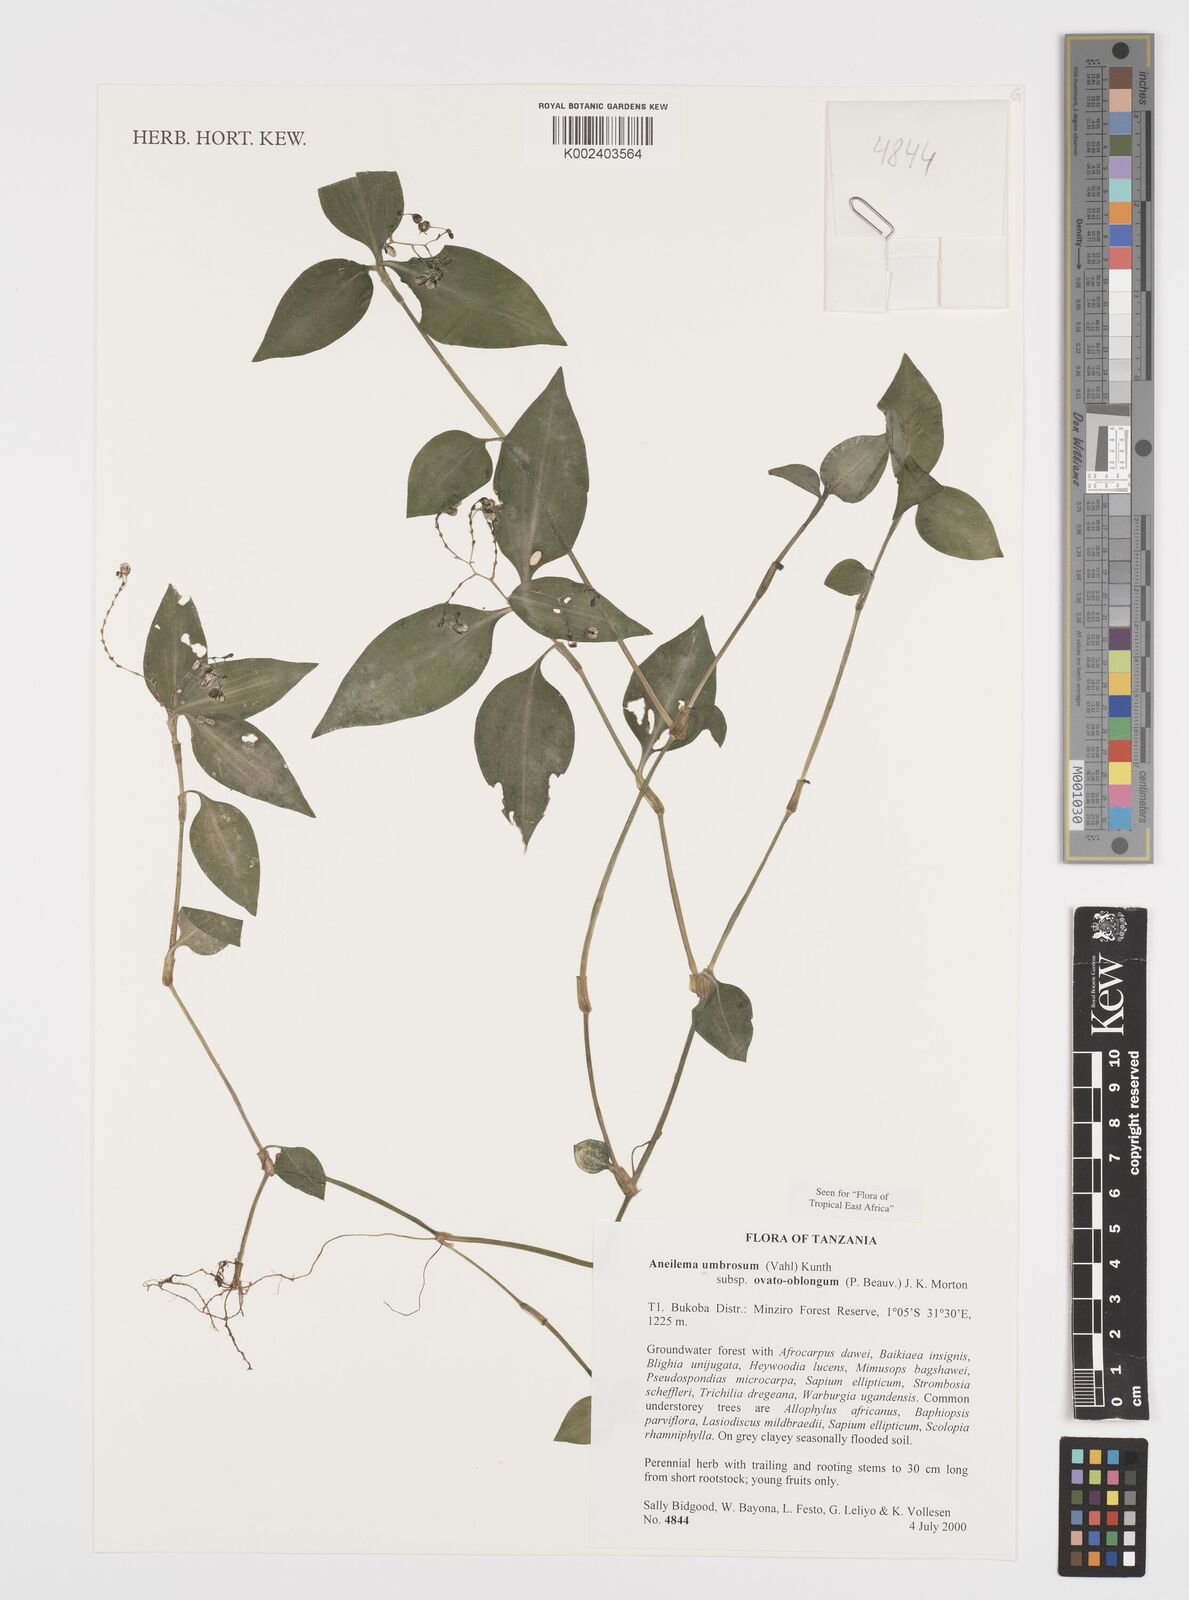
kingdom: Plantae
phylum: Tracheophyta
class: Liliopsida
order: Commelinales
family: Commelinaceae
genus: Aneilema
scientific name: Aneilema umbrosum
